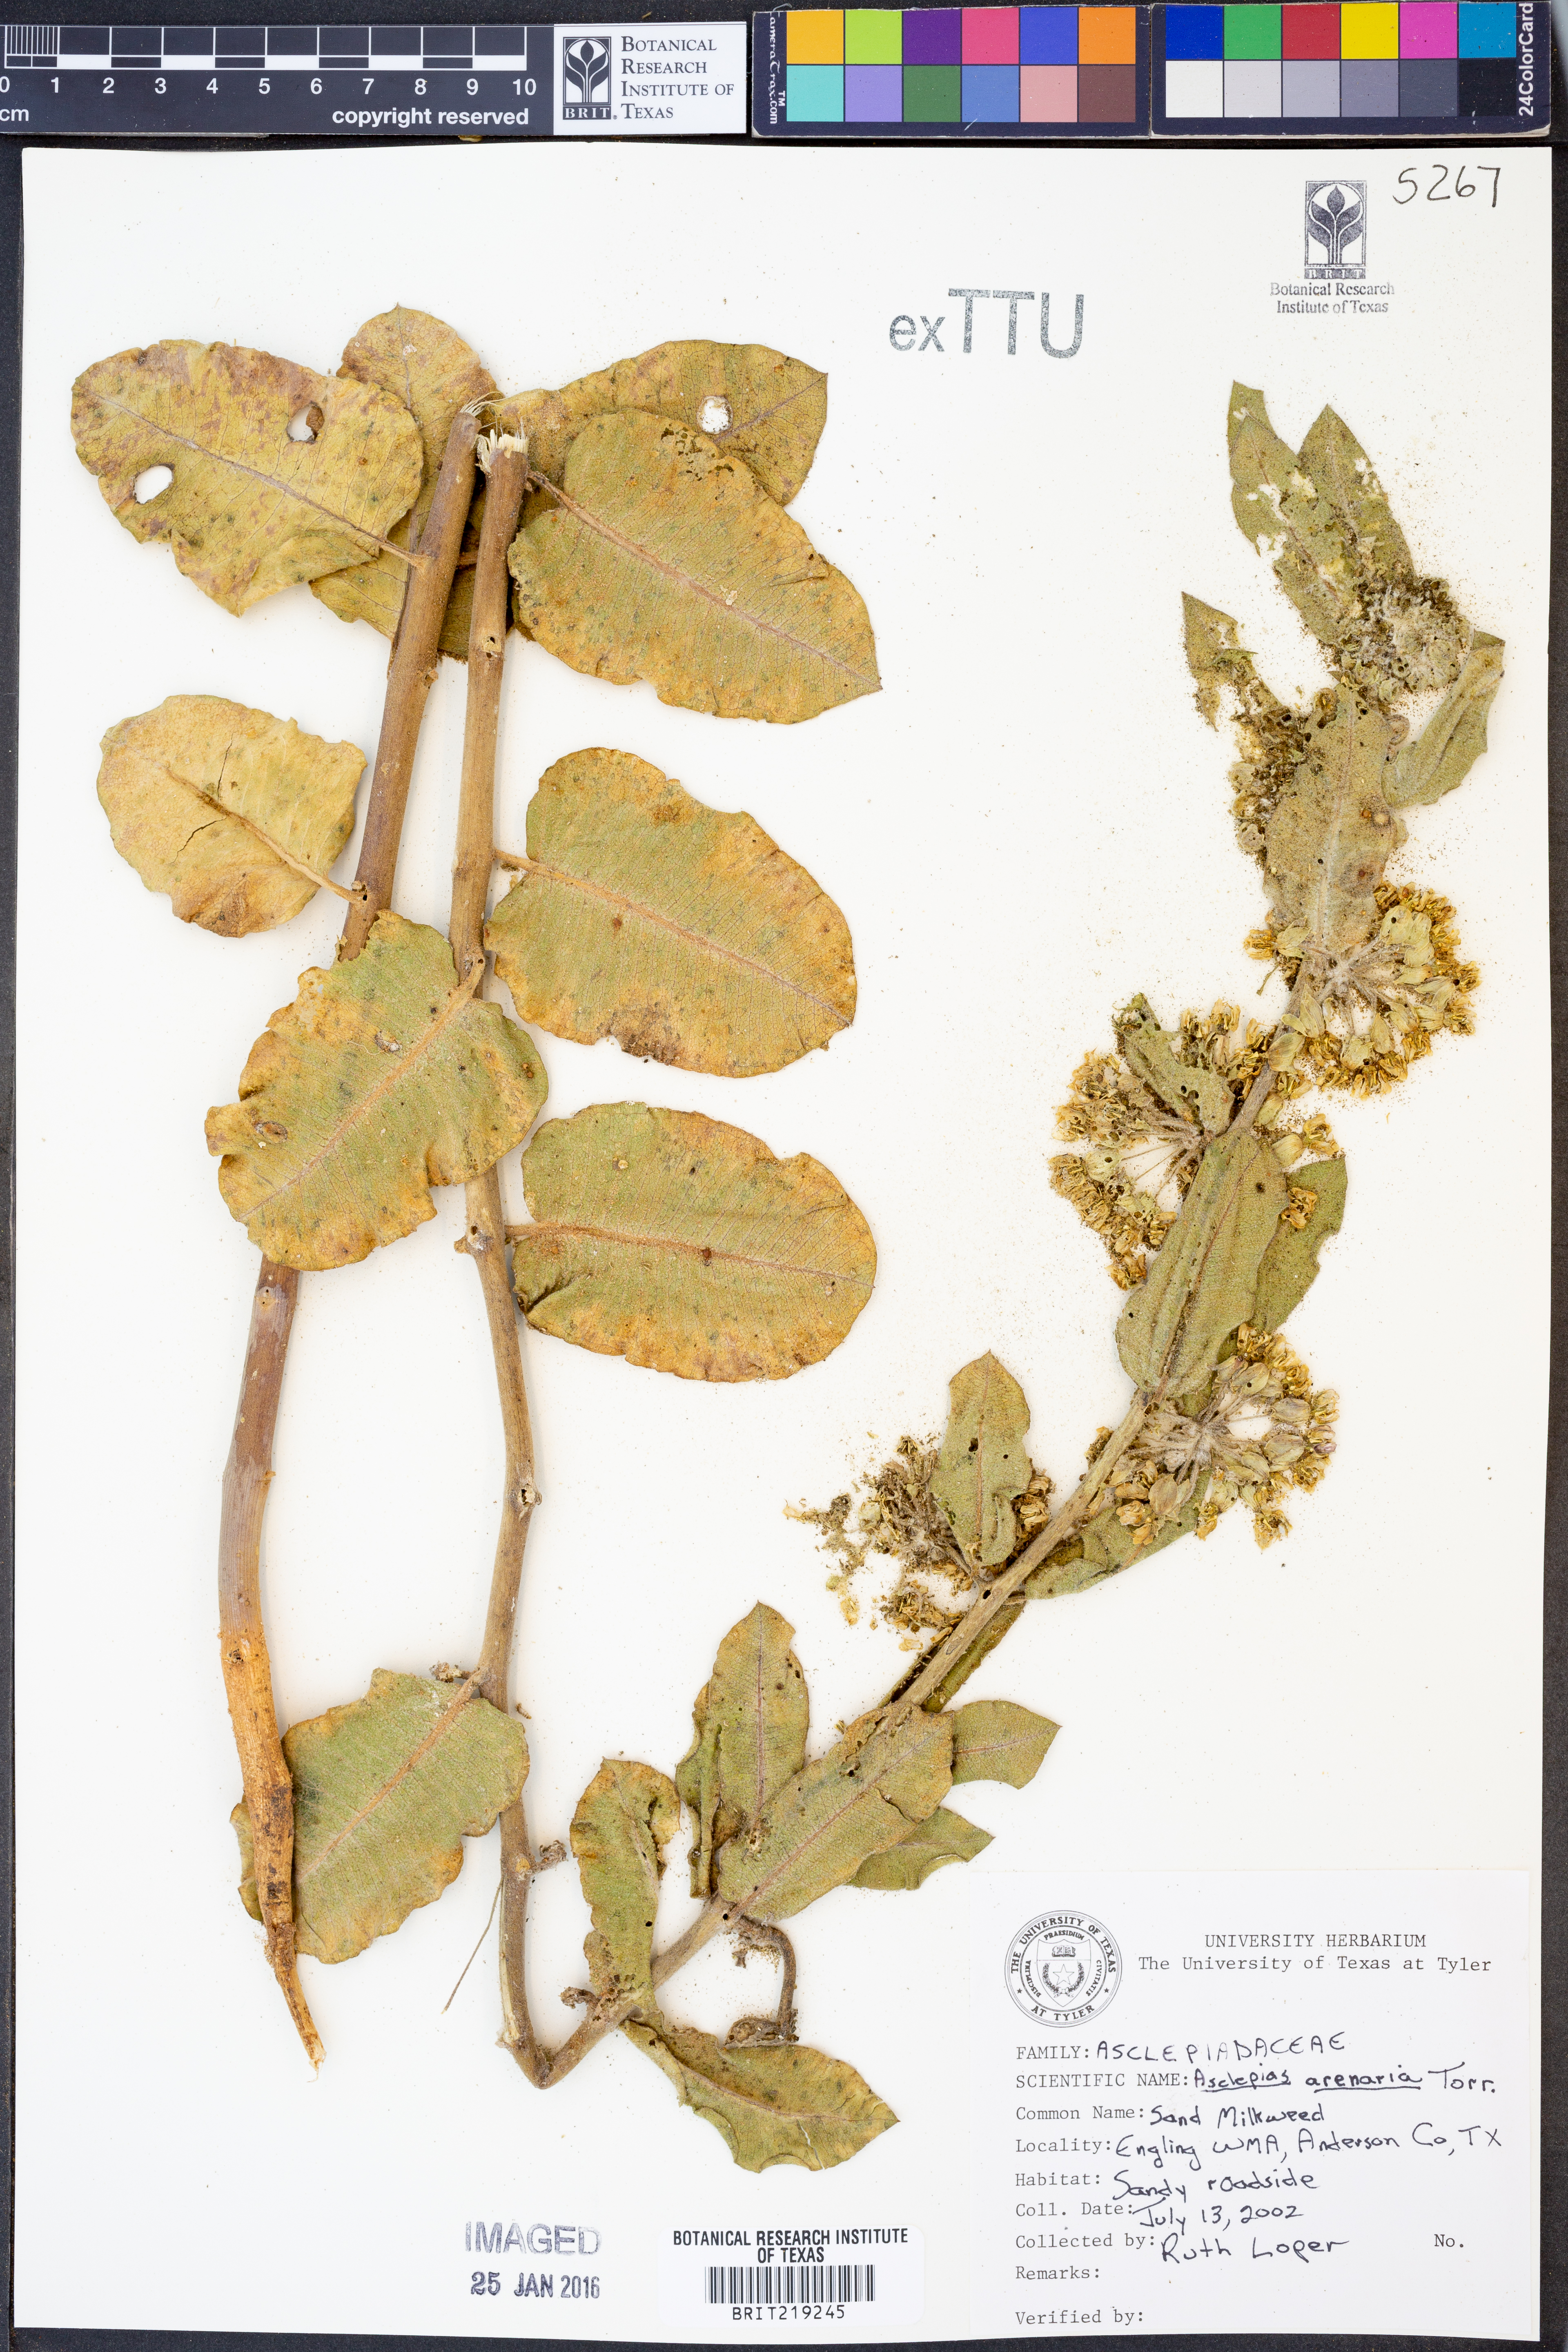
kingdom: Plantae
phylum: Tracheophyta
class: Magnoliopsida
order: Gentianales
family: Apocynaceae
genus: Asclepias
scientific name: Asclepias arenaria
